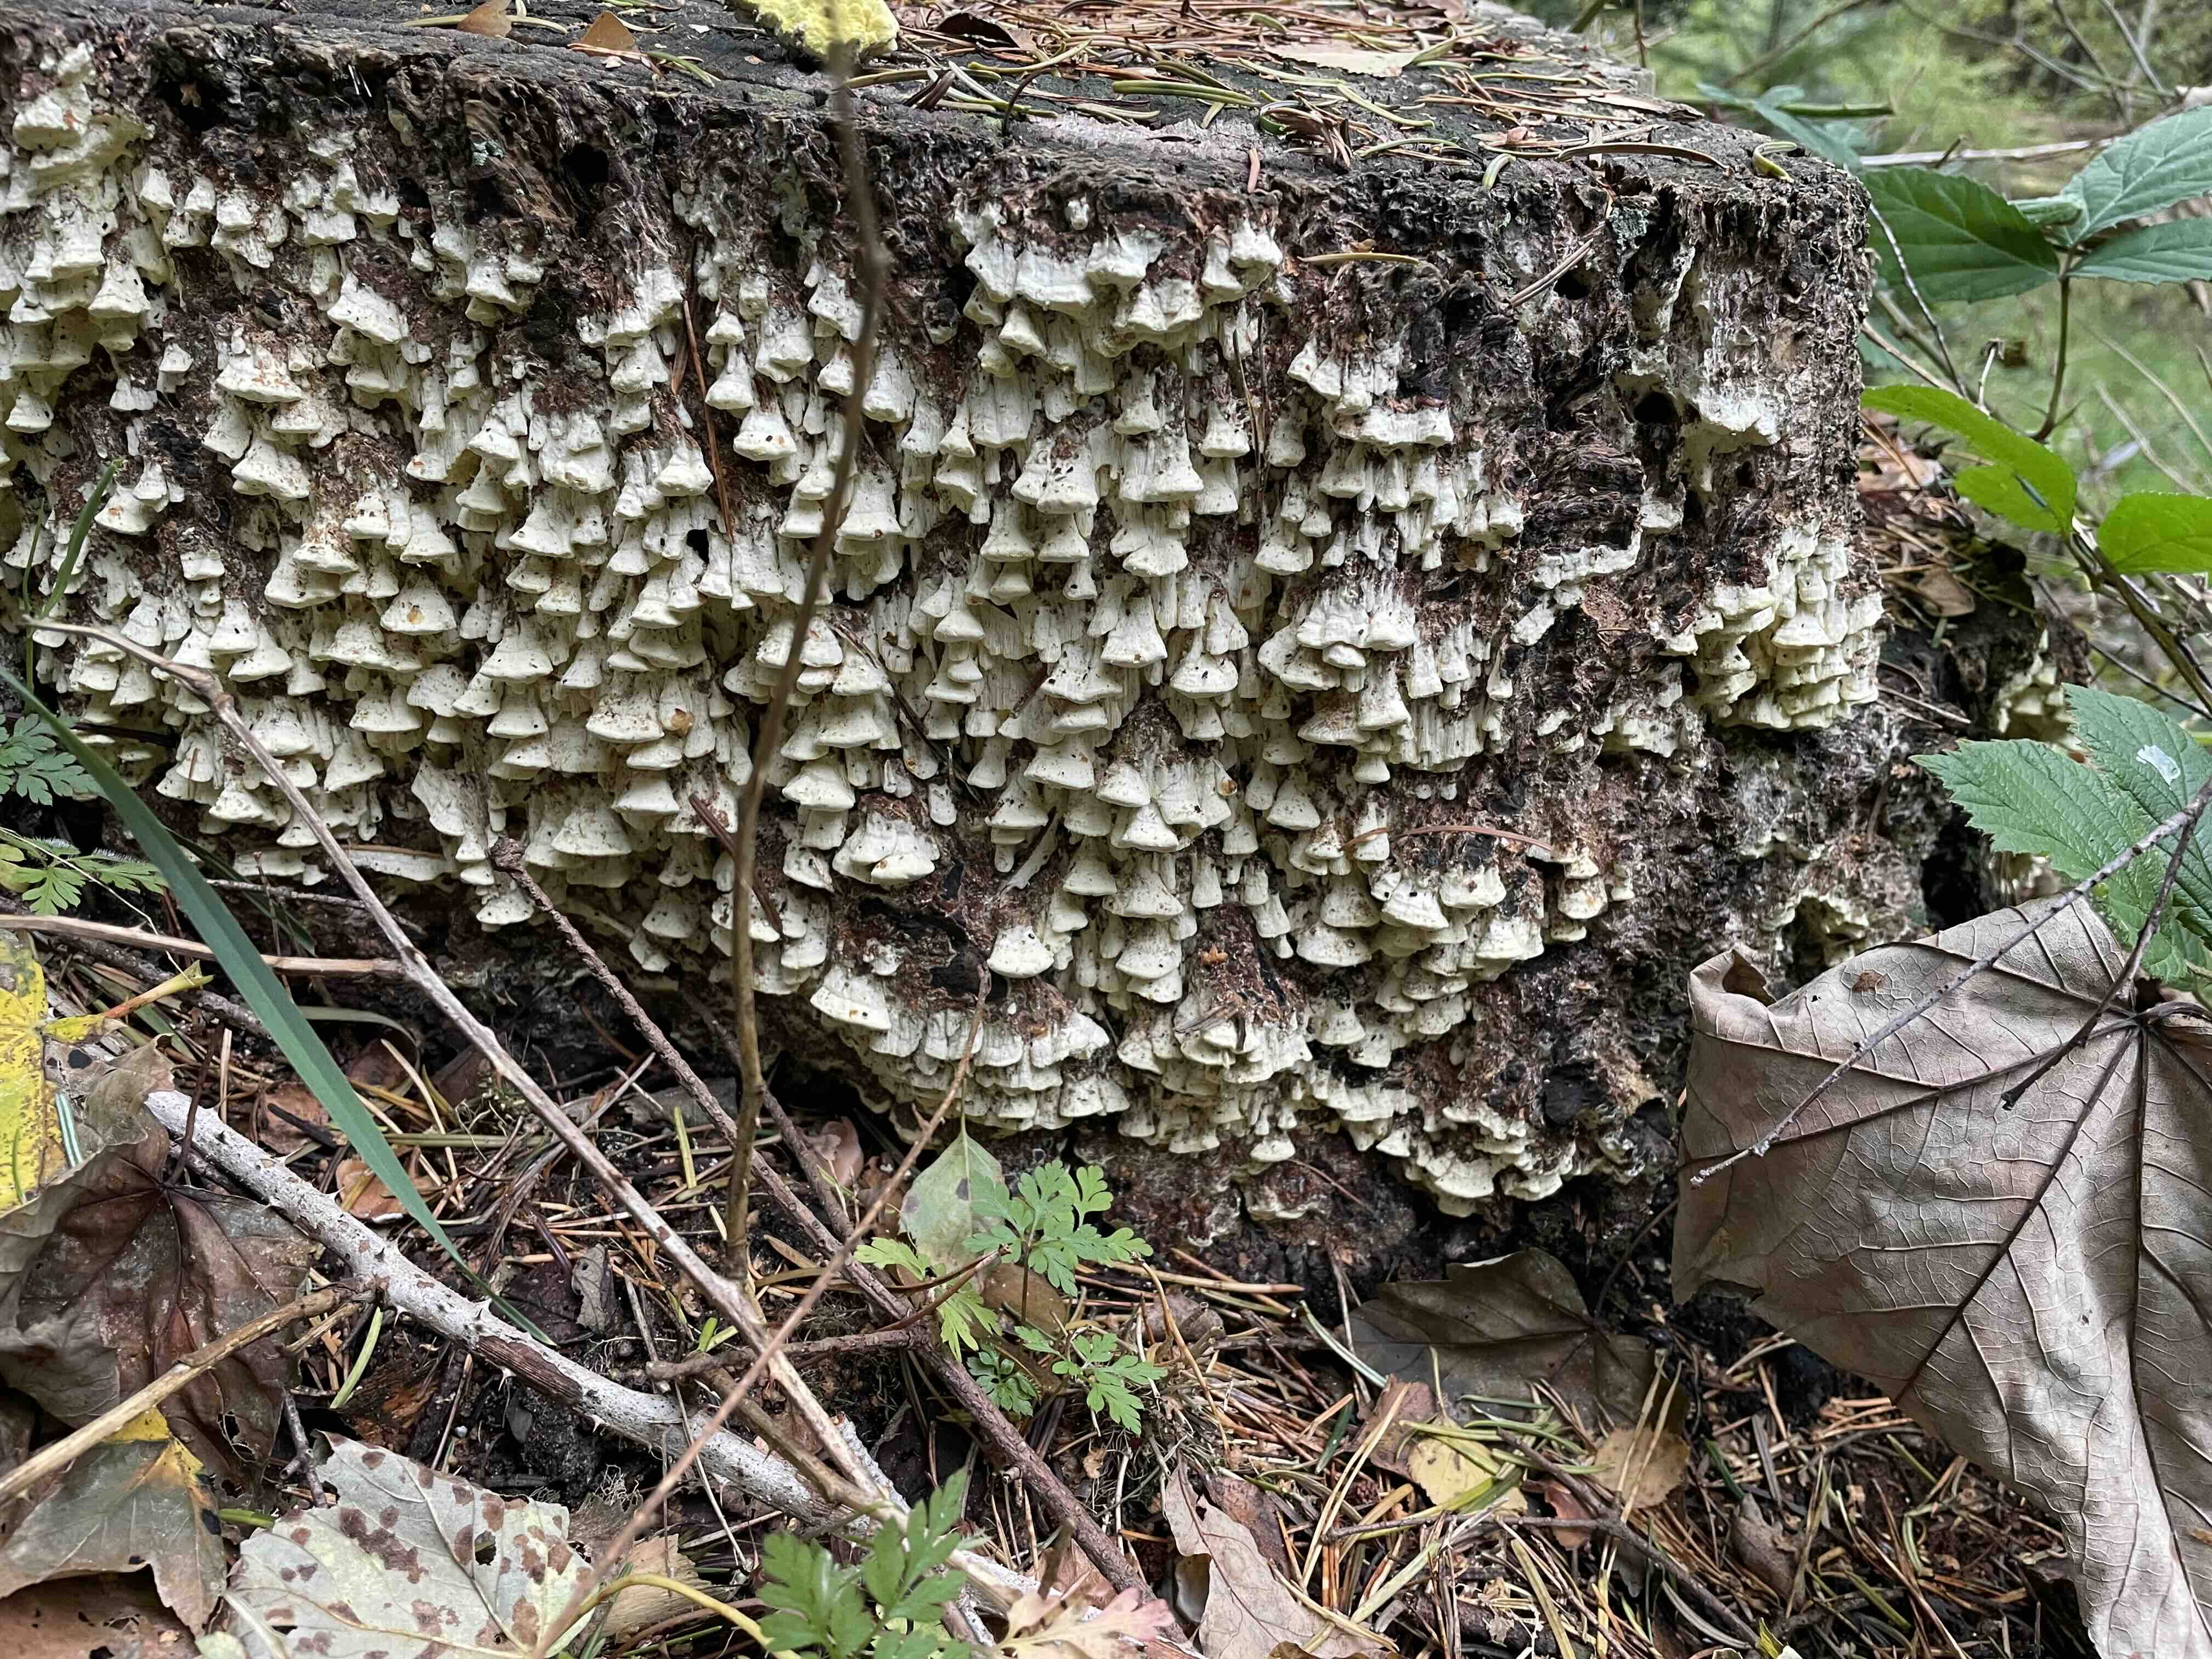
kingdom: Fungi
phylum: Basidiomycota
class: Agaricomycetes
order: Polyporales
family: Fomitopsidaceae
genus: Daedalea
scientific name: Daedalea xantha
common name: gul sejporesvamp
